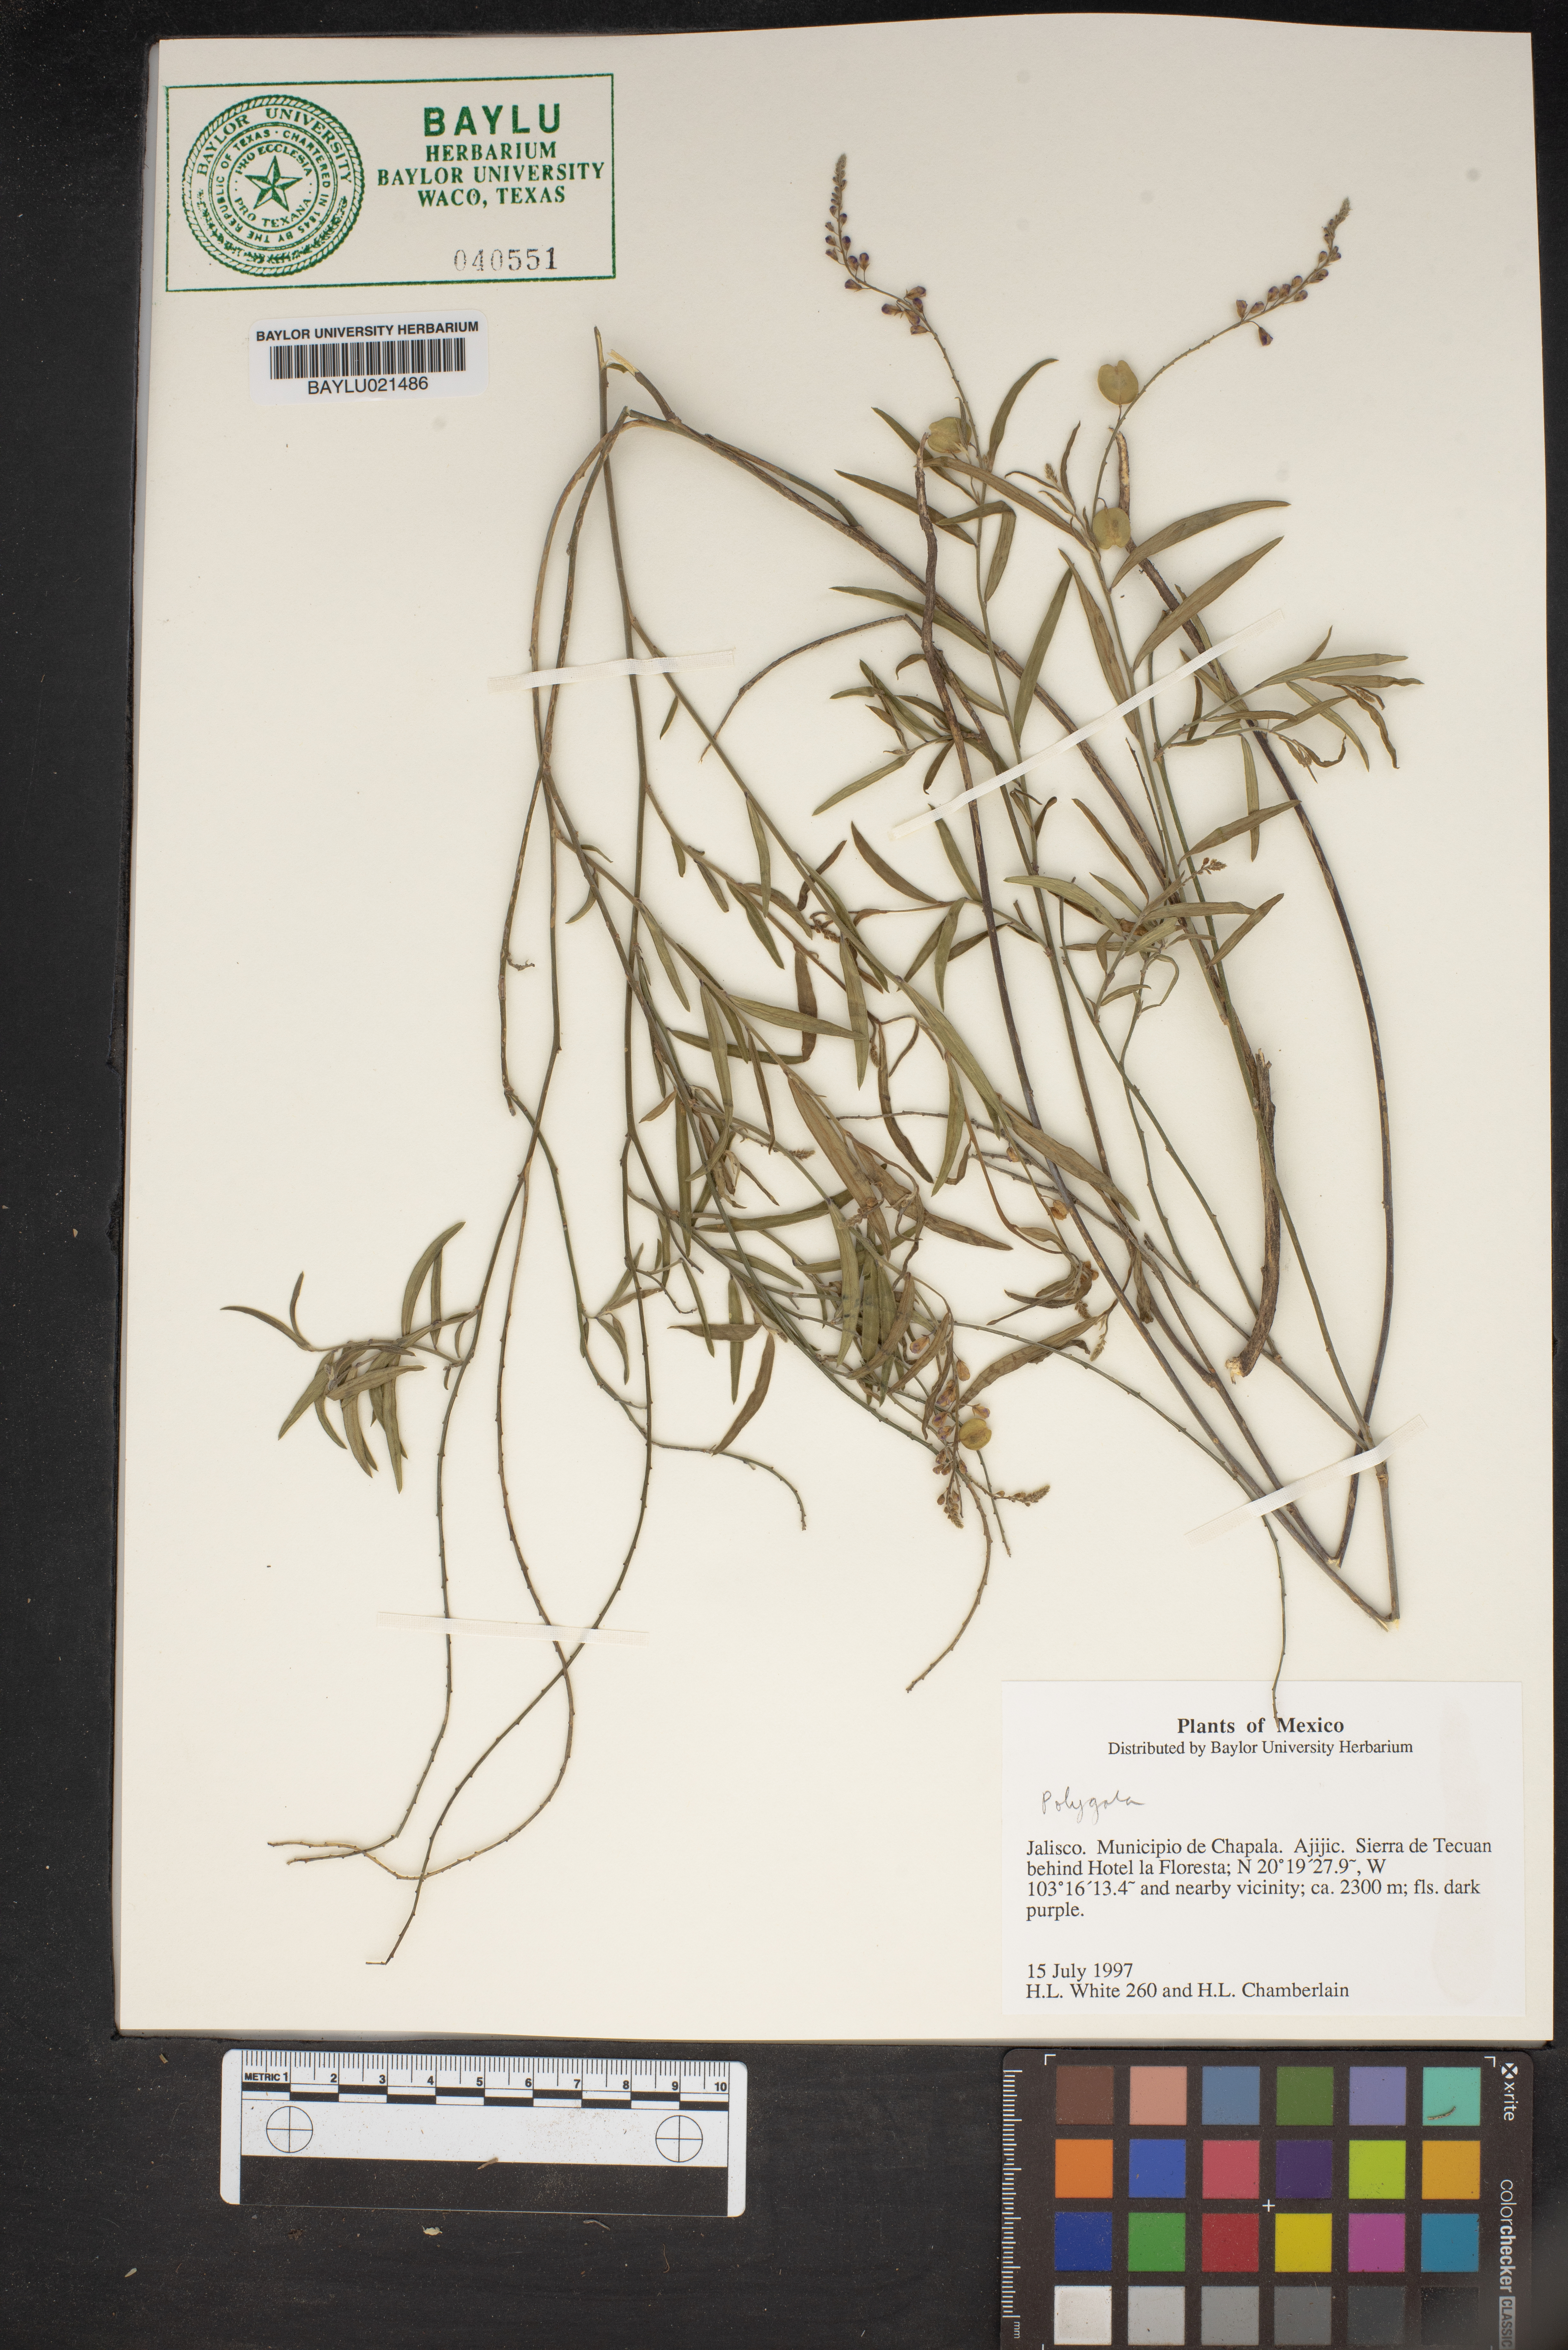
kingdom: Plantae
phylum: Tracheophyta
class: Magnoliopsida
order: Fabales
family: Polygalaceae
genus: Polygala
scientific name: Polygala
